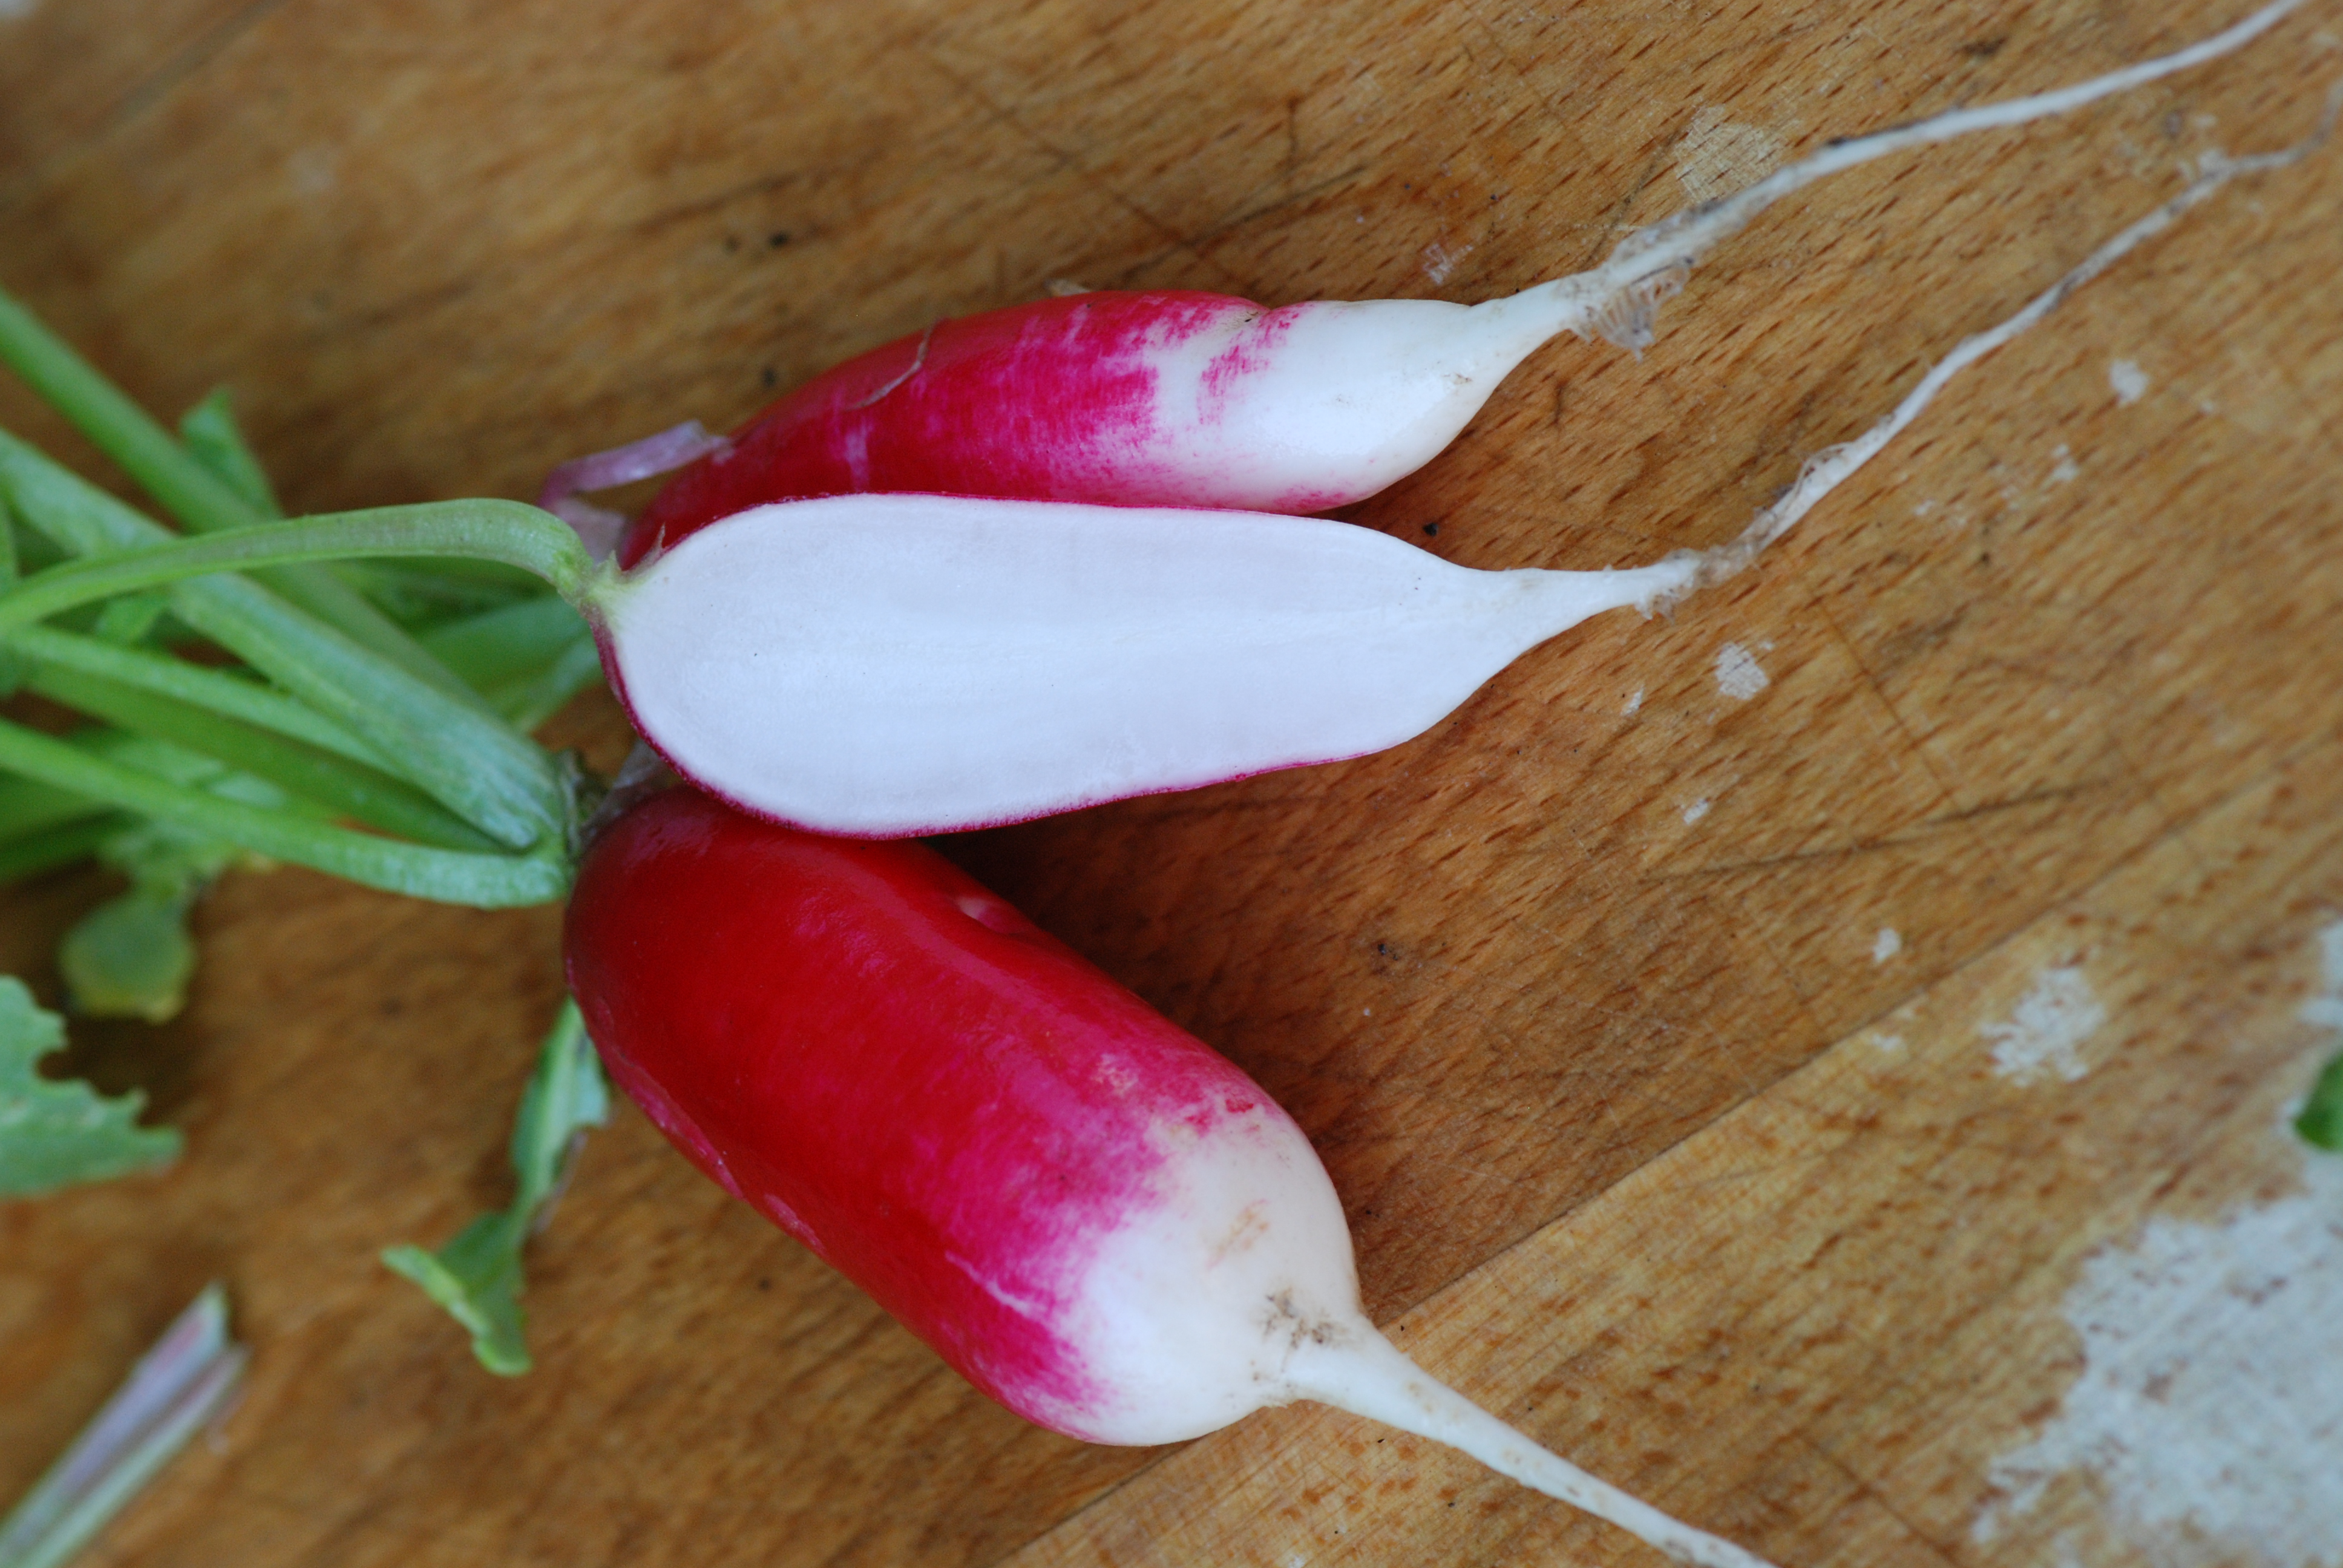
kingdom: Plantae
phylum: Tracheophyta
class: Magnoliopsida
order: Brassicales
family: Brassicaceae
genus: Raphanus
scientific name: Raphanus sativus
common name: Cultivated radish
